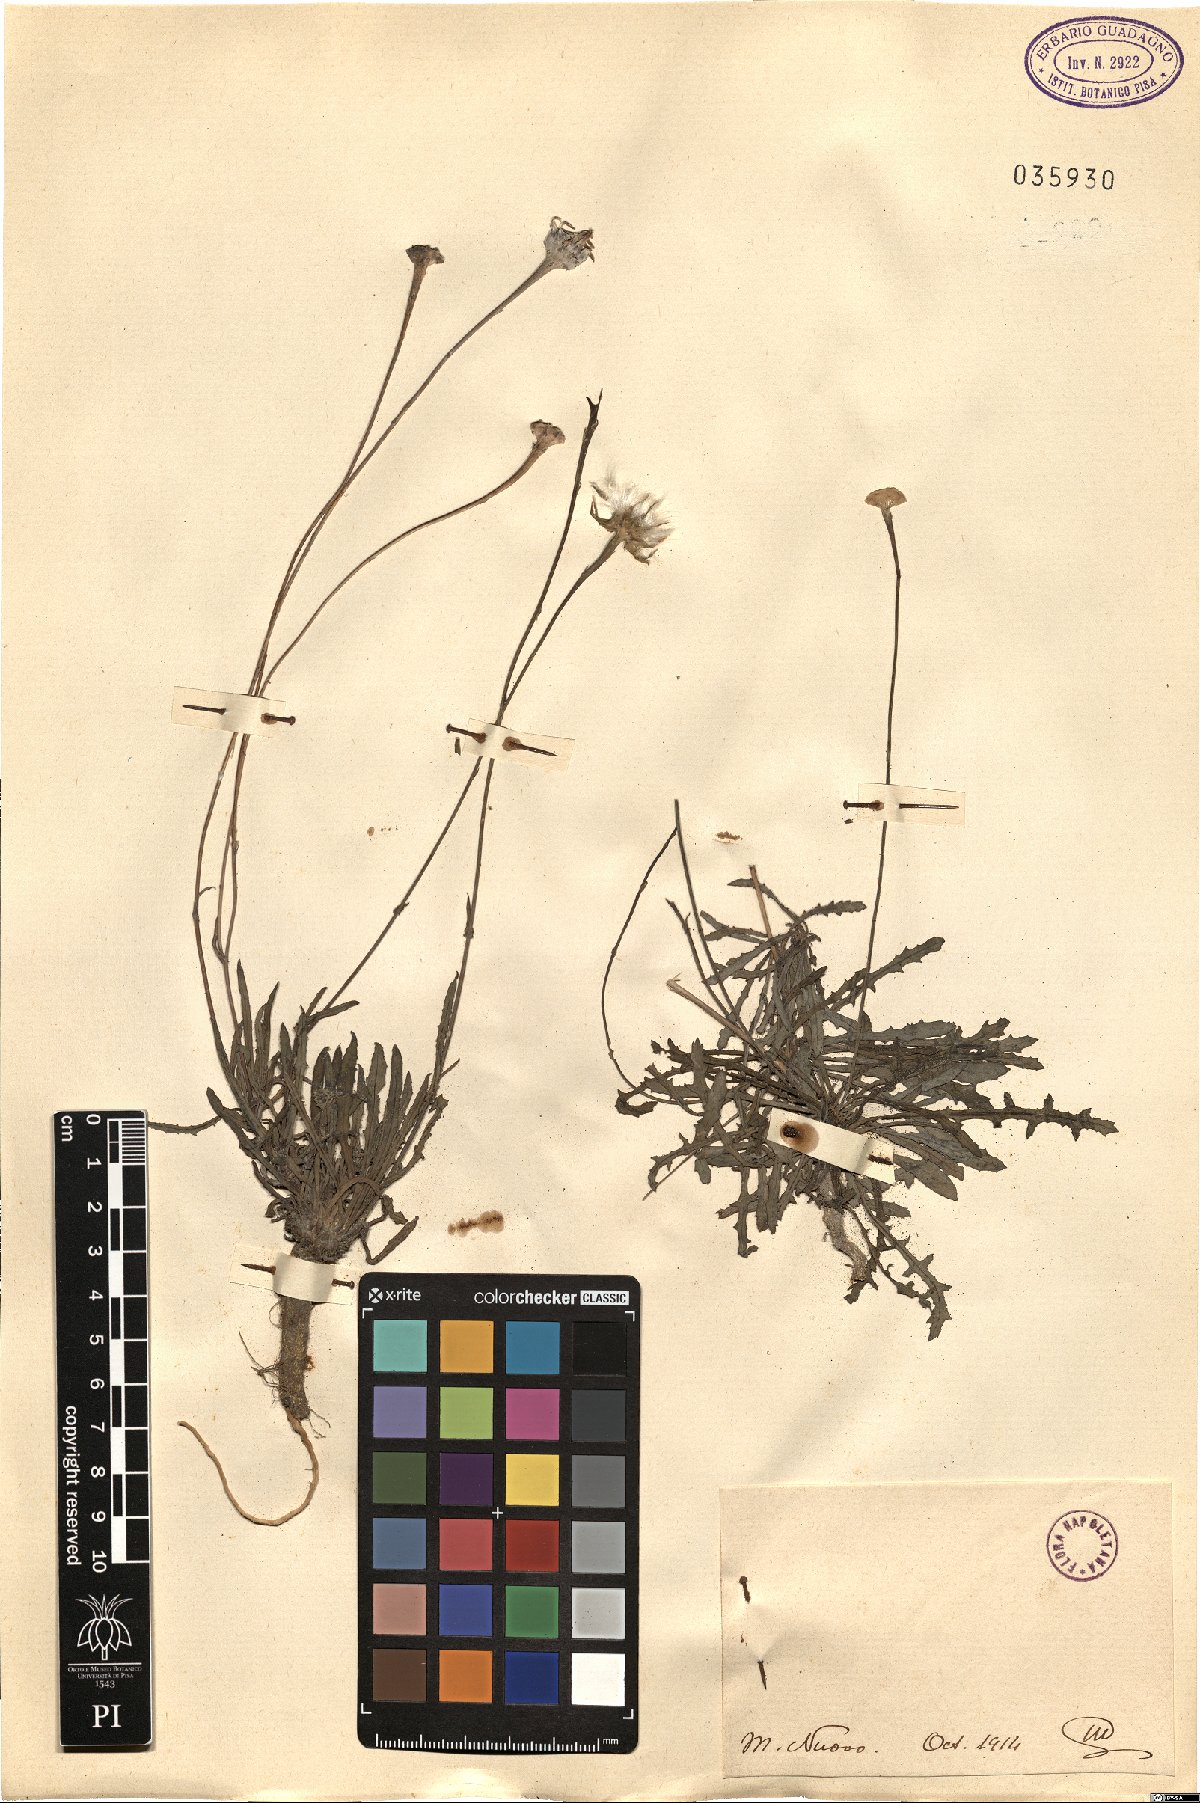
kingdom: Plantae
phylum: Tracheophyta
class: Magnoliopsida
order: Asterales
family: Asteraceae
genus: Reichardia
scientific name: Reichardia
